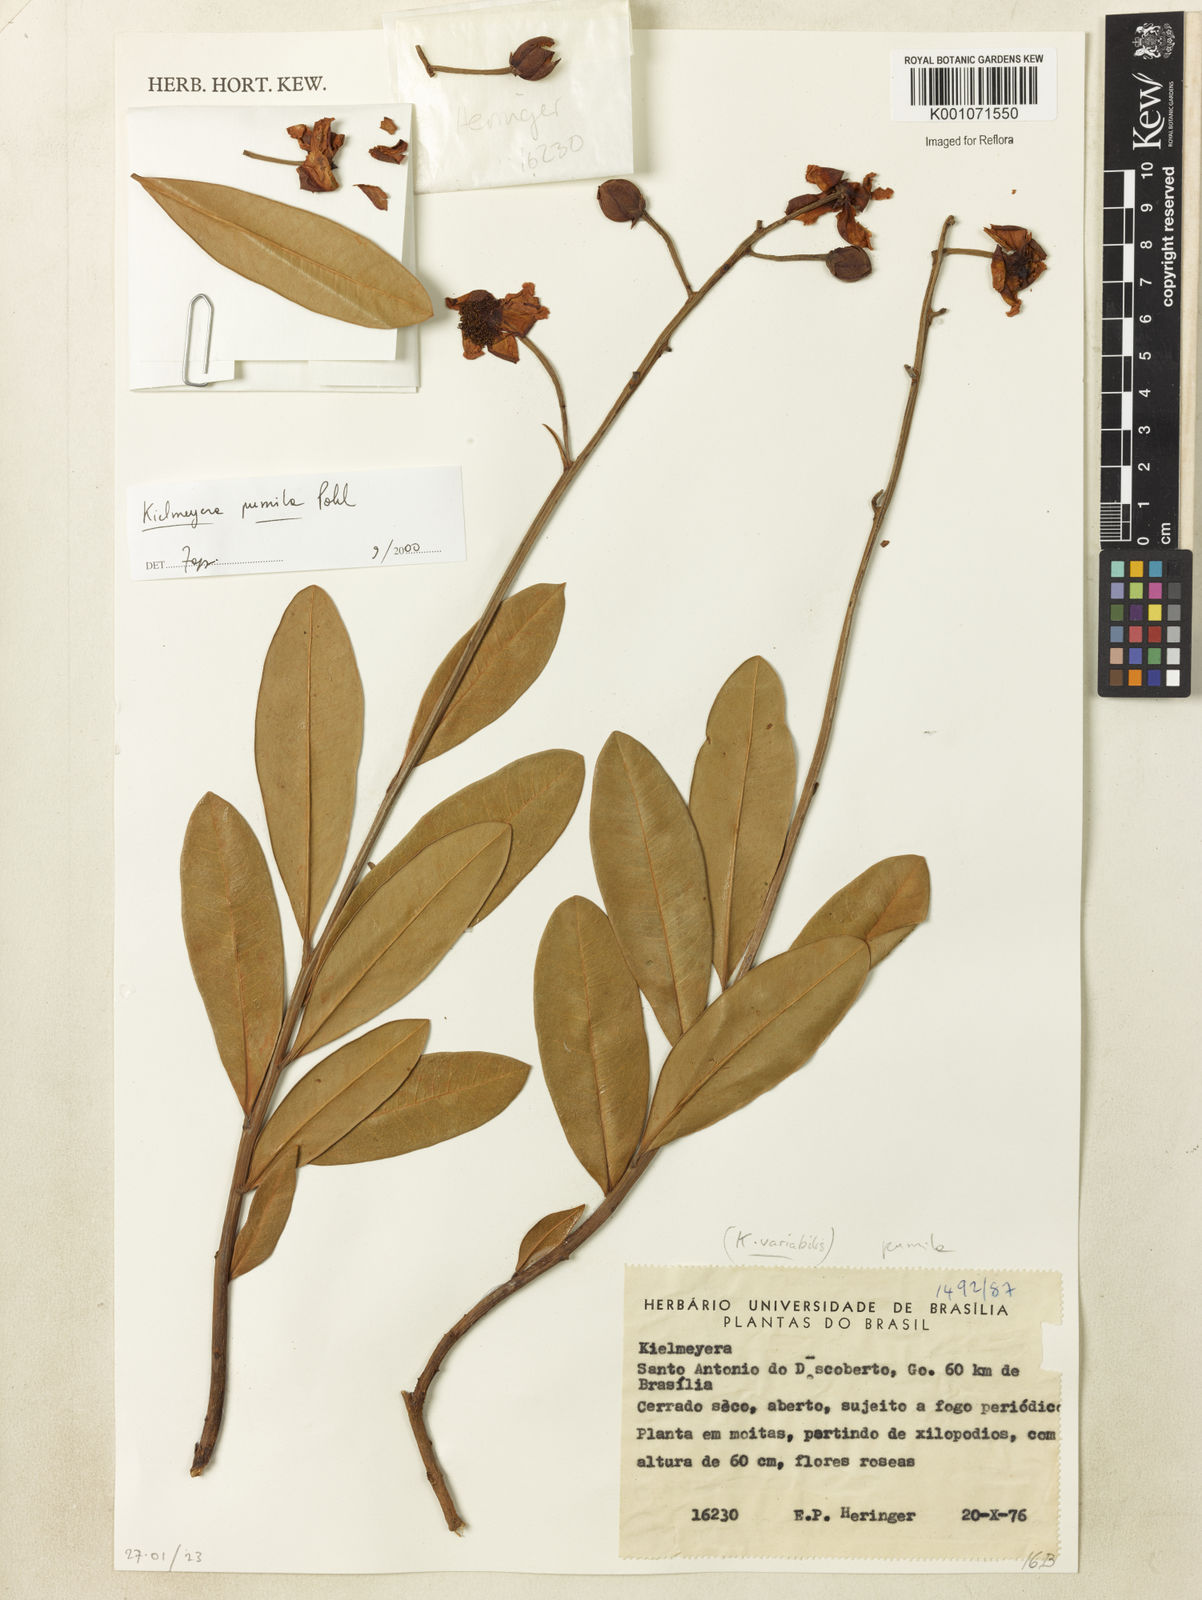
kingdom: Plantae
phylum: Tracheophyta
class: Magnoliopsida
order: Malpighiales
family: Calophyllaceae
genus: Kielmeyera
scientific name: Kielmeyera pumila
